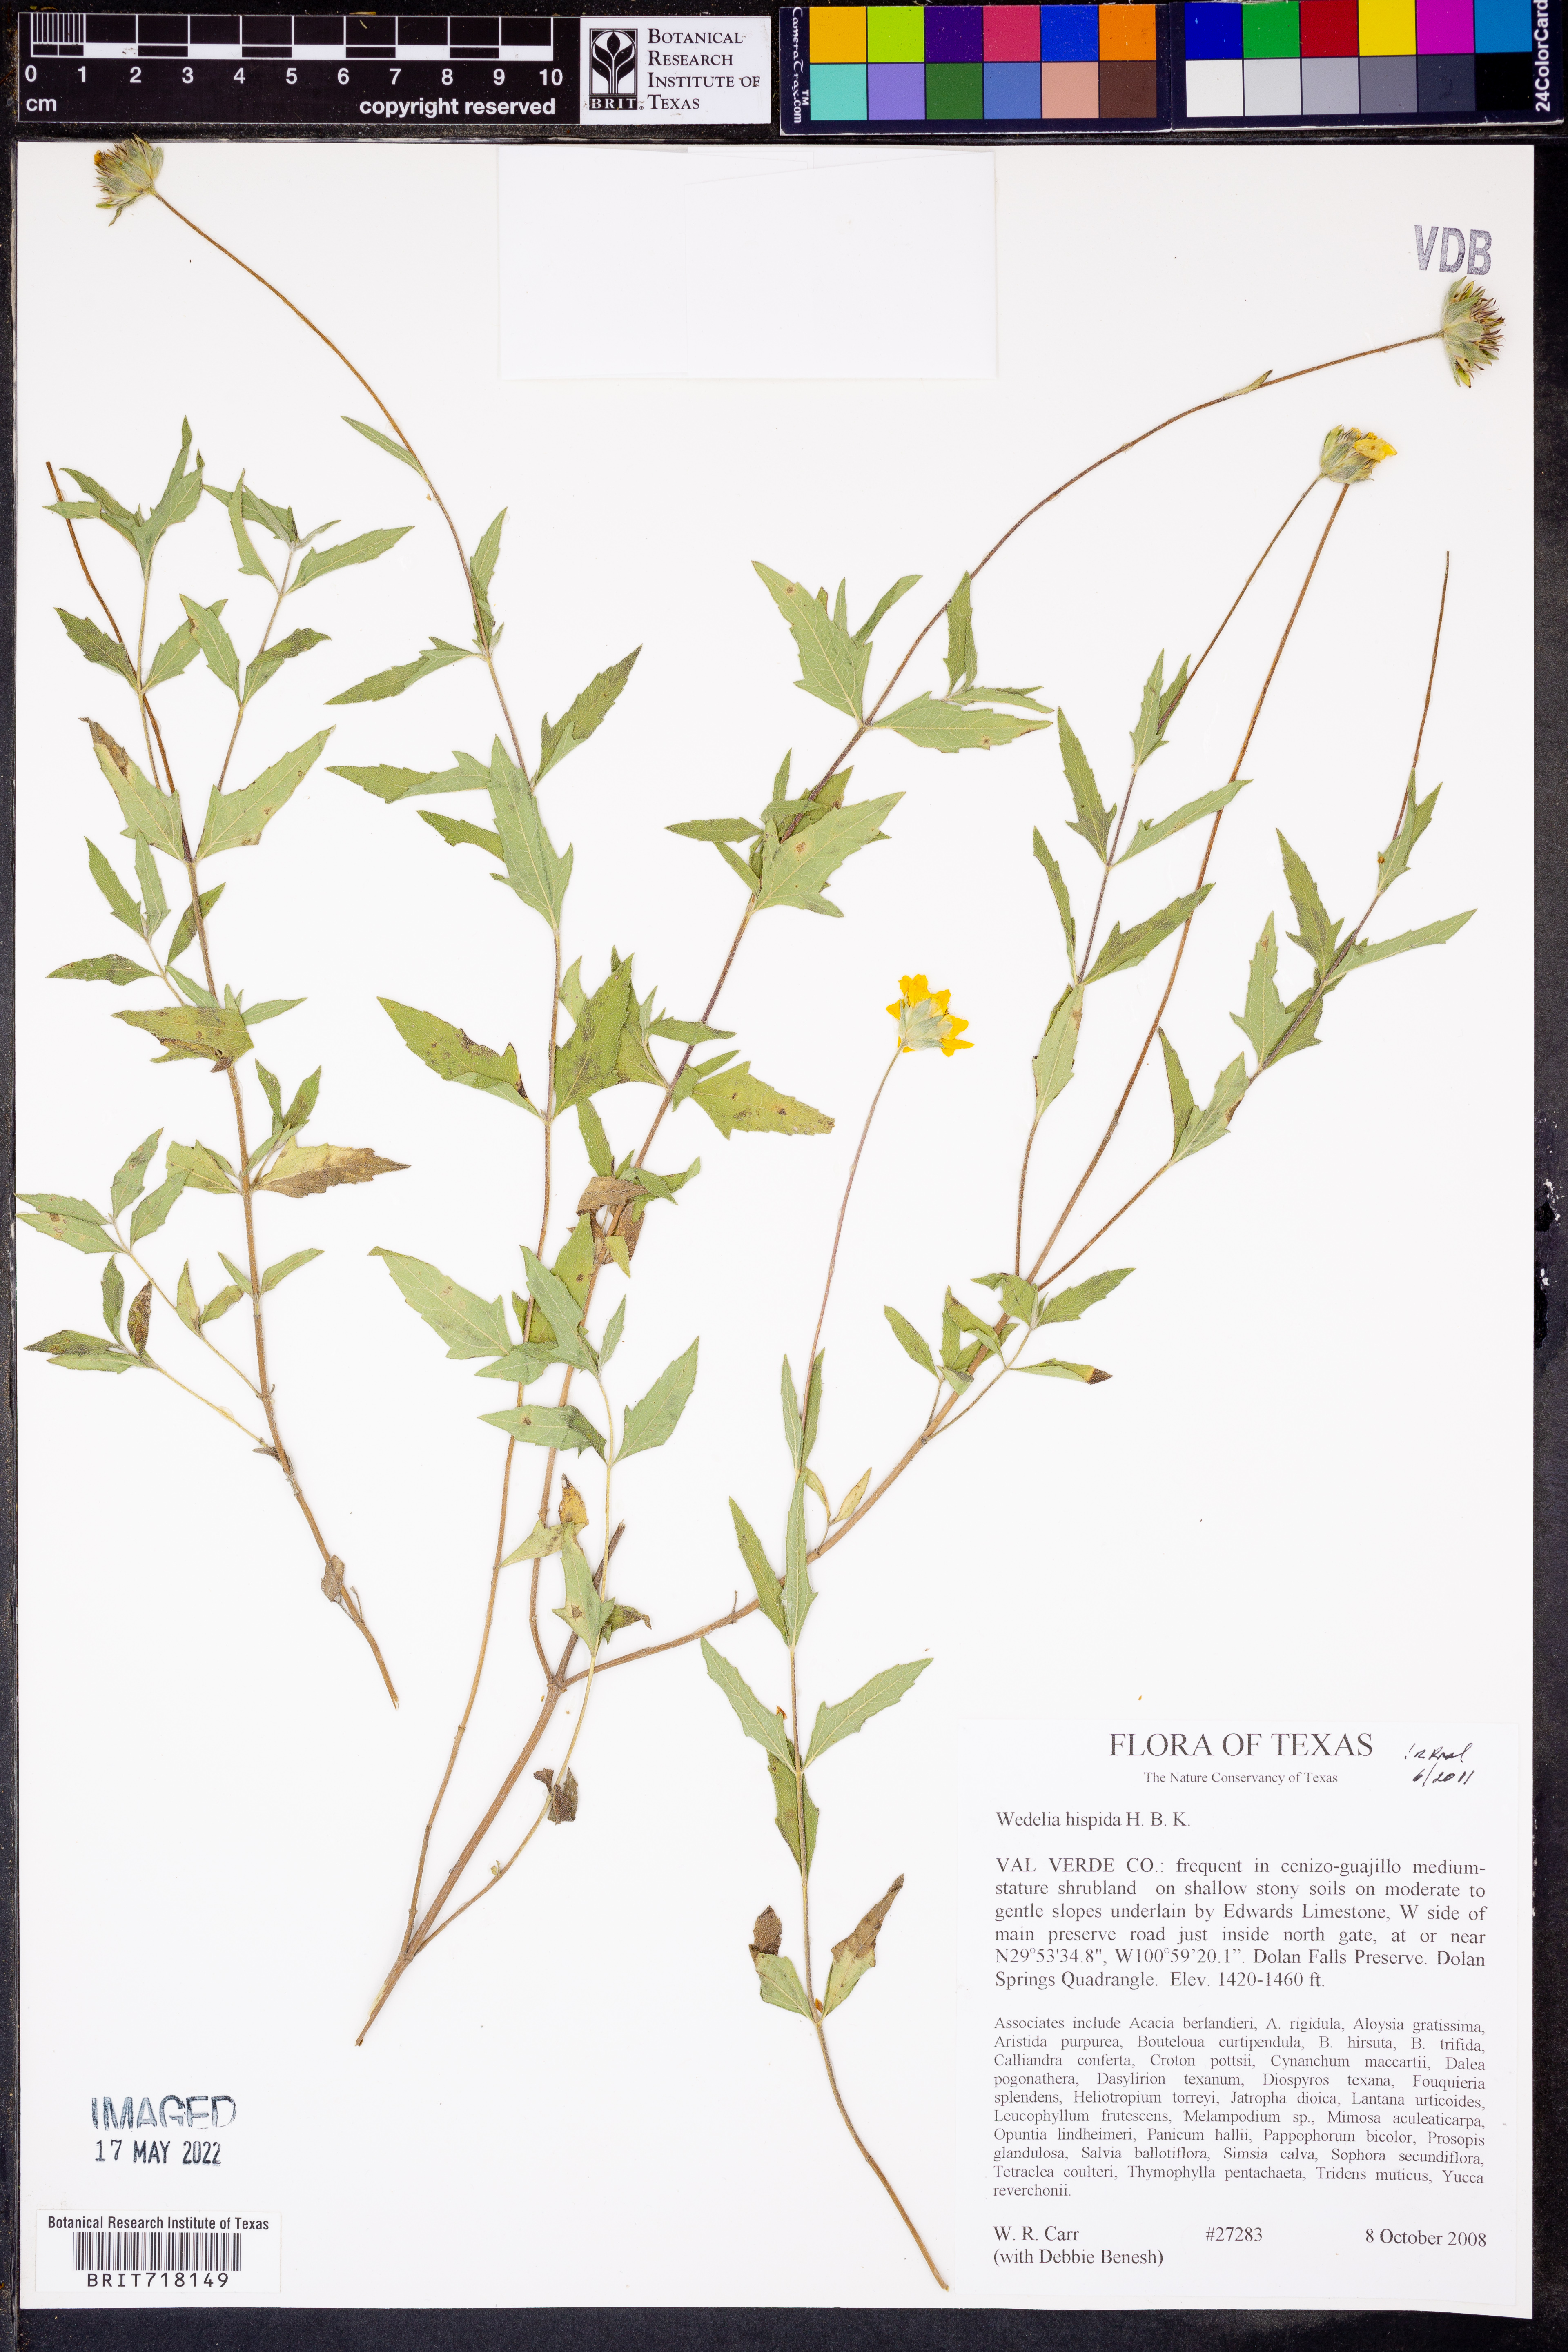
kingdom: Plantae
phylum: Tracheophyta
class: Magnoliopsida
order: Asterales
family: Asteraceae
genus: Wedelia
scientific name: Wedelia acapulcensis
